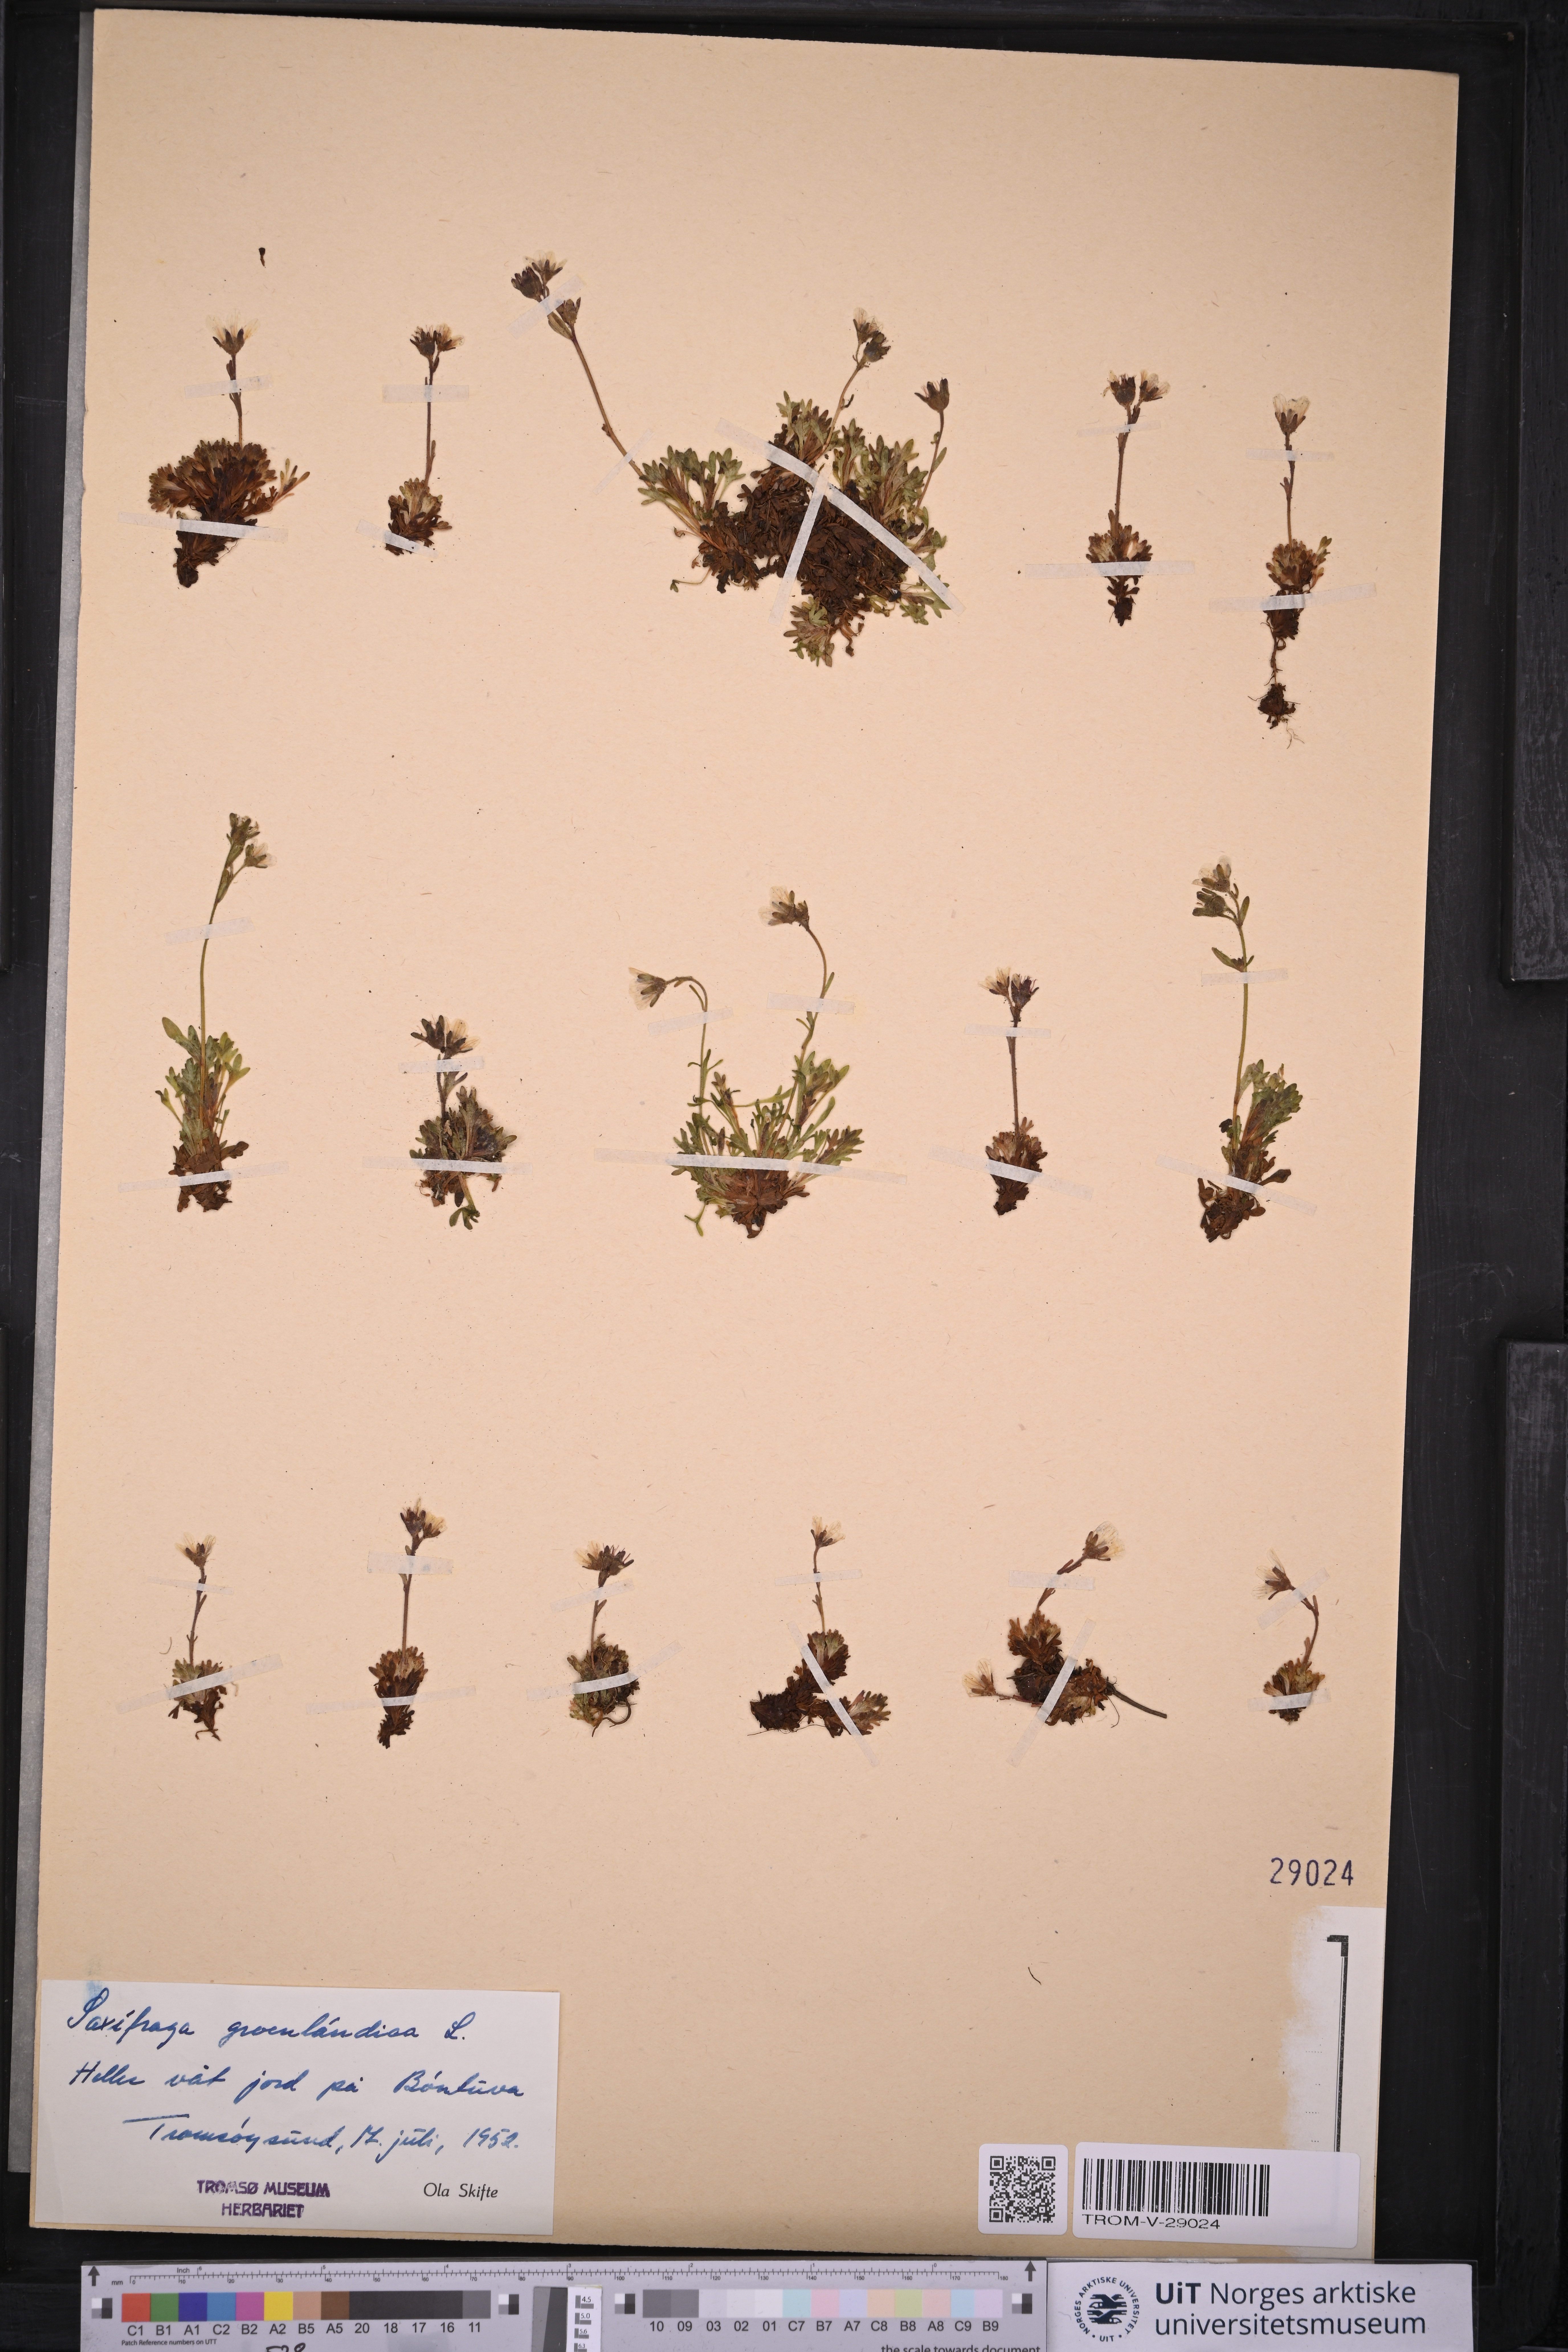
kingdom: Plantae
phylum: Tracheophyta
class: Magnoliopsida
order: Saxifragales
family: Saxifragaceae
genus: Saxifraga
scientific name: Saxifraga cespitosa
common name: Tufted saxifrage
